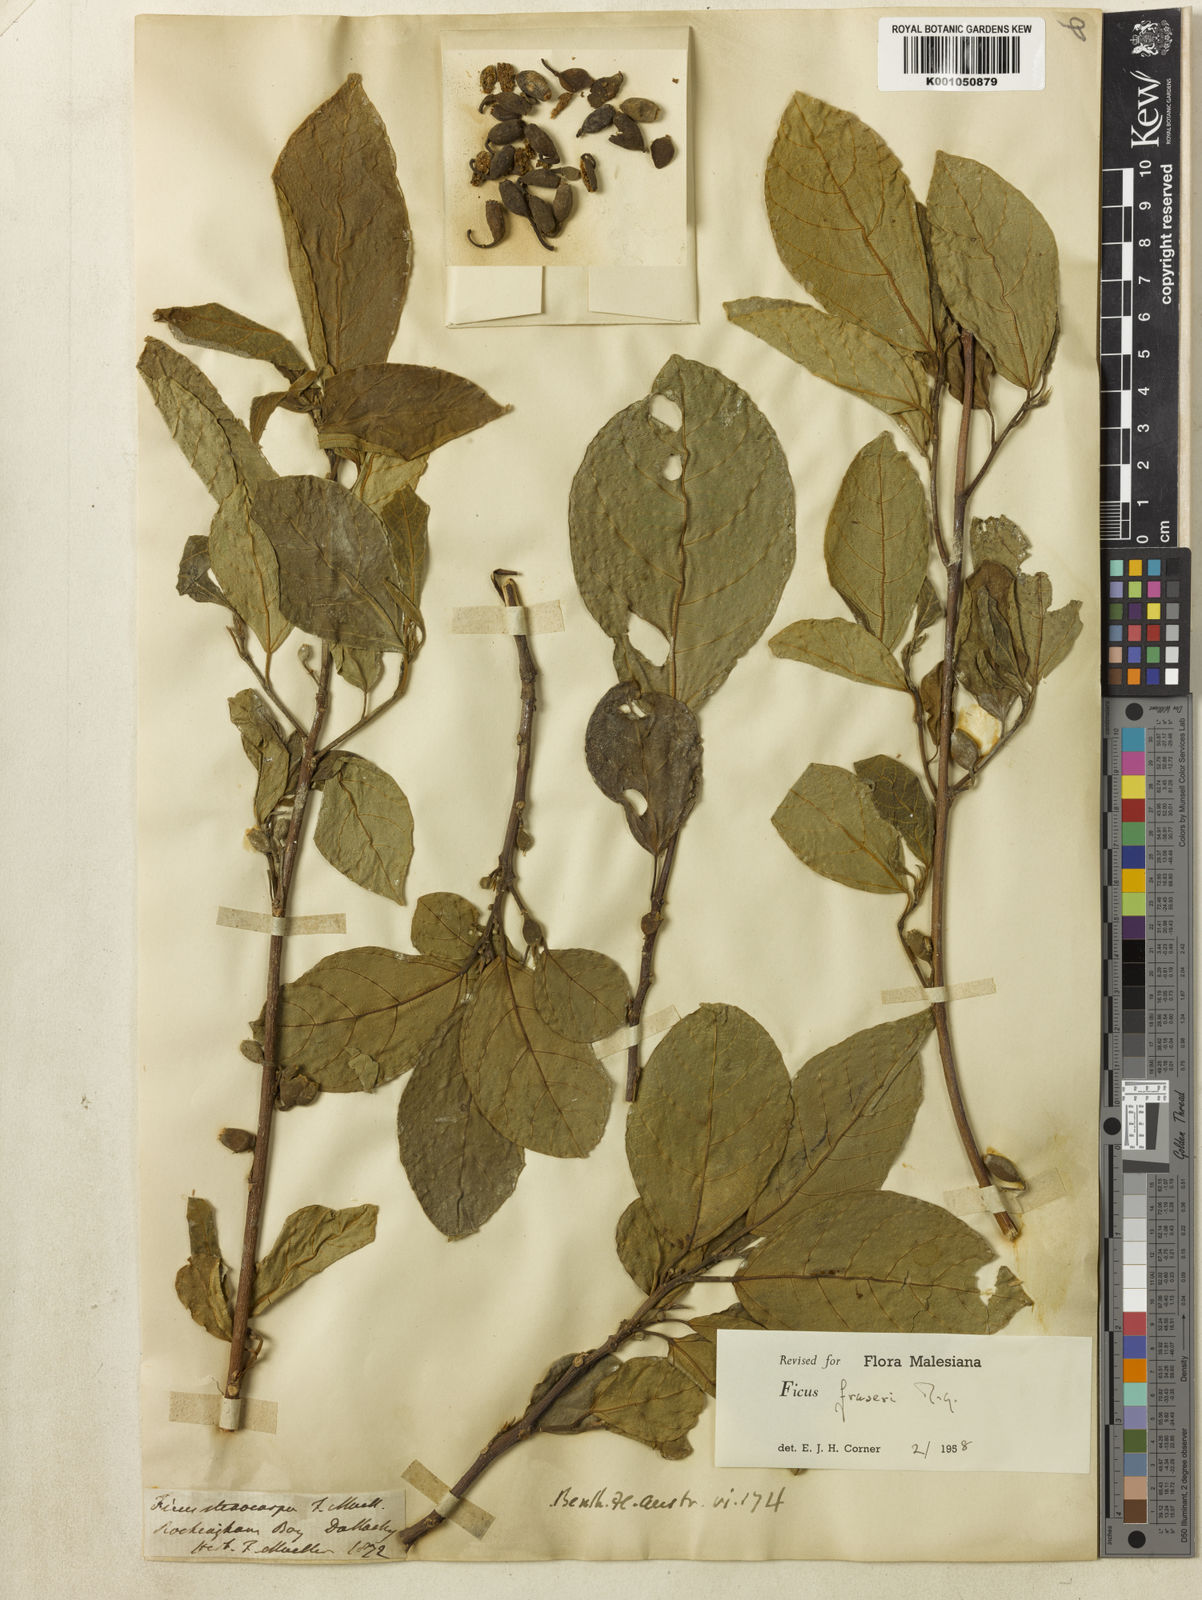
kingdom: Plantae
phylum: Tracheophyta
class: Magnoliopsida
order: Rosales
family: Moraceae
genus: Ficus
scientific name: Ficus fraseri
